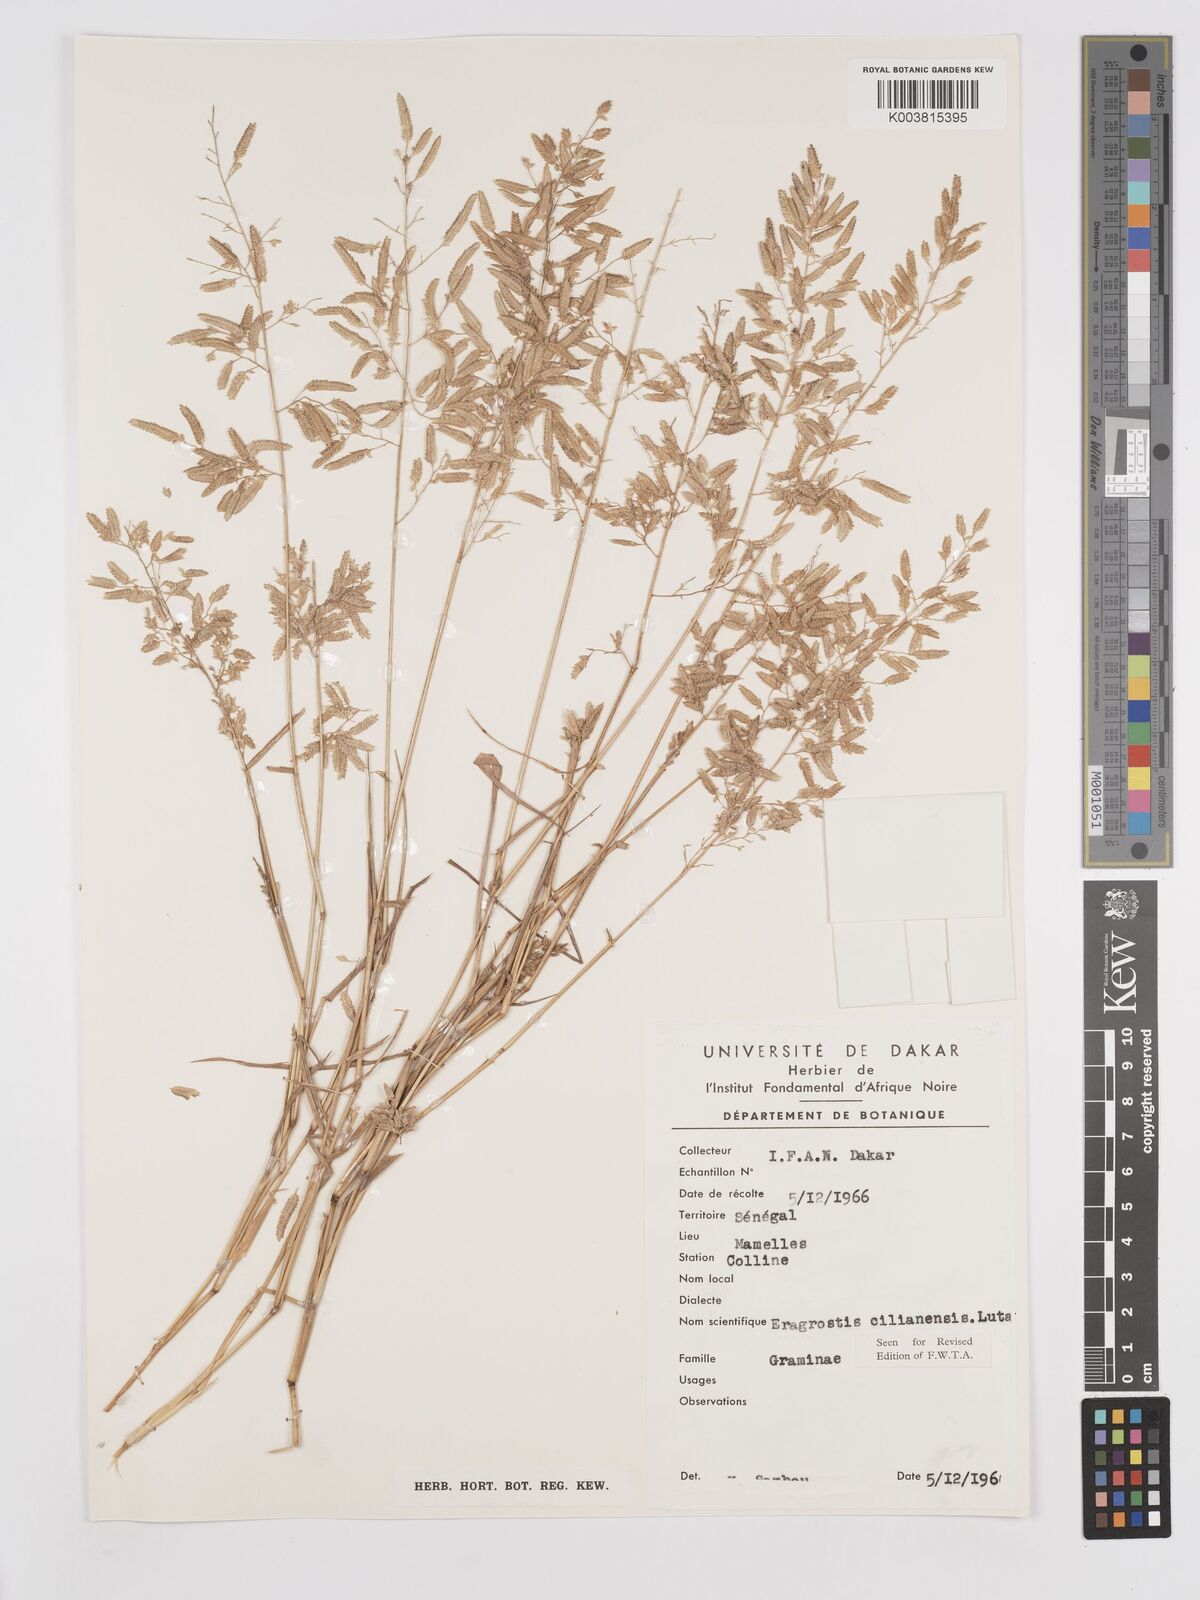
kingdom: Plantae
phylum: Tracheophyta
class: Liliopsida
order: Poales
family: Poaceae
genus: Eragrostis
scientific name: Eragrostis cilianensis
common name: Stinkgrass
